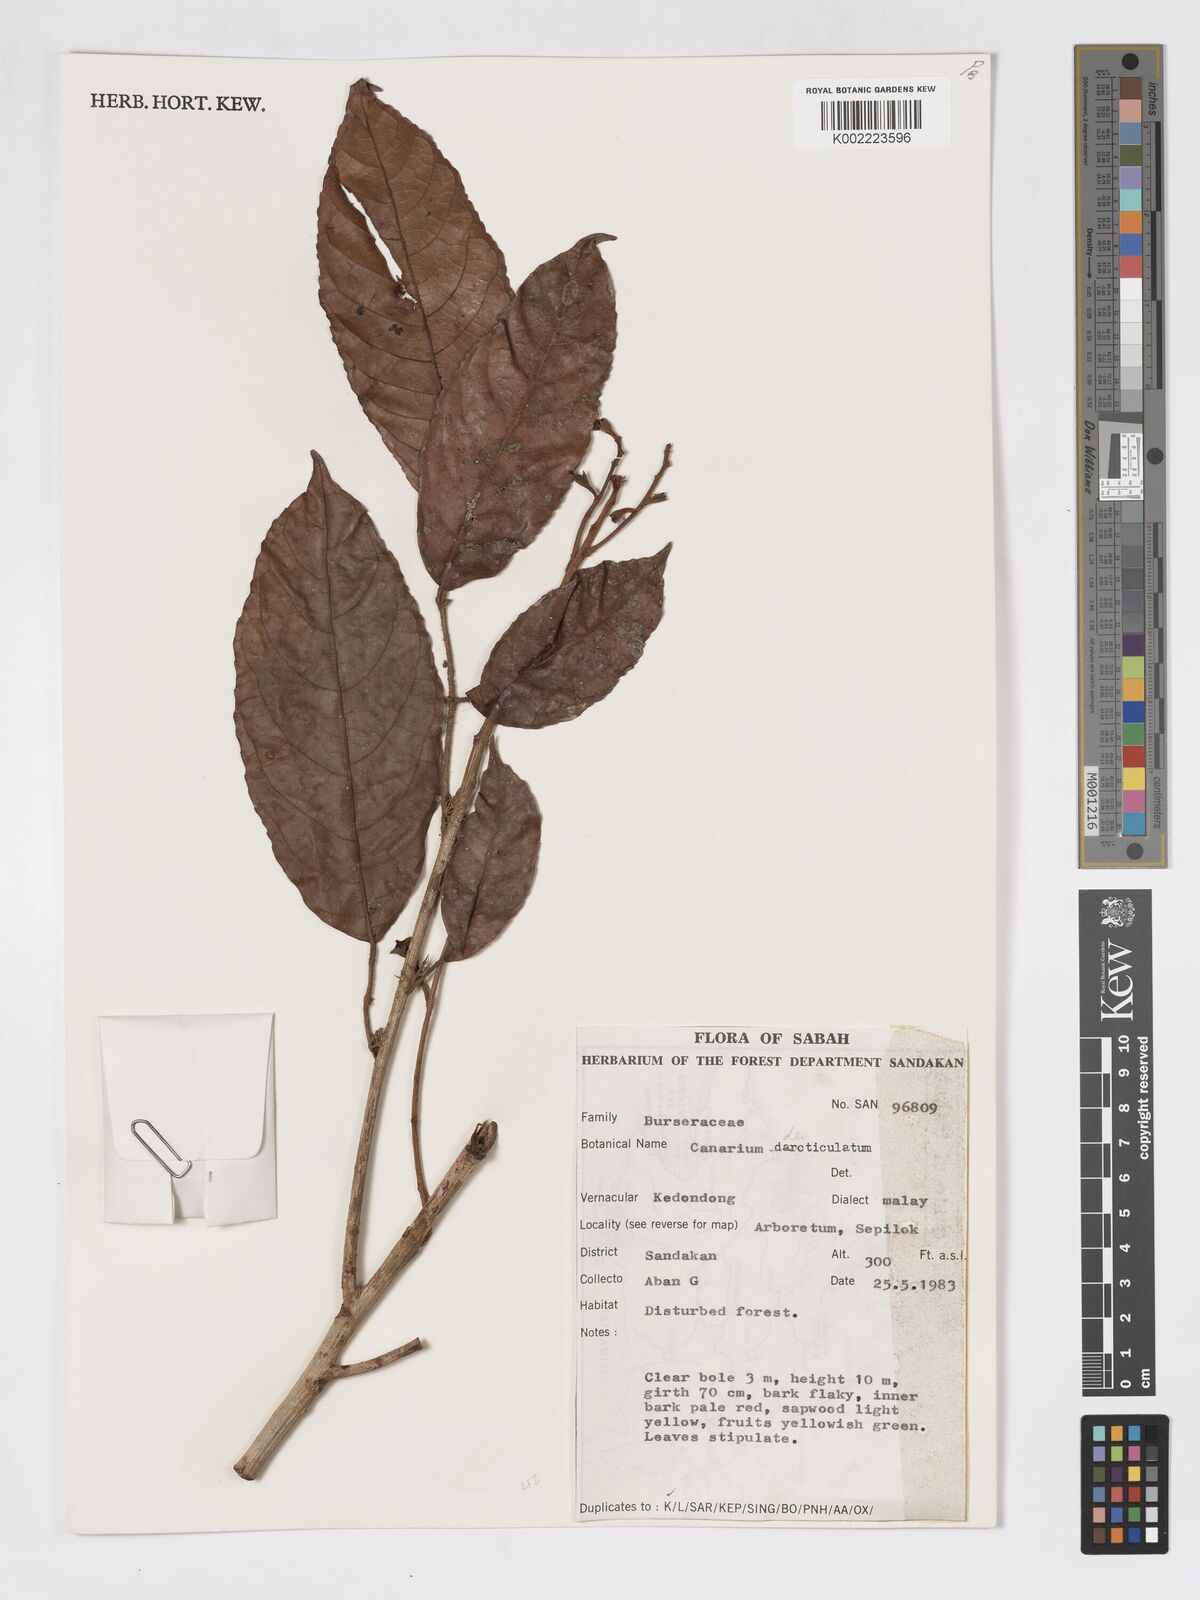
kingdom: Plantae
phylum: Tracheophyta
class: Magnoliopsida
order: Sapindales
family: Burseraceae
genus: Canarium
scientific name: Canarium denticulatum
